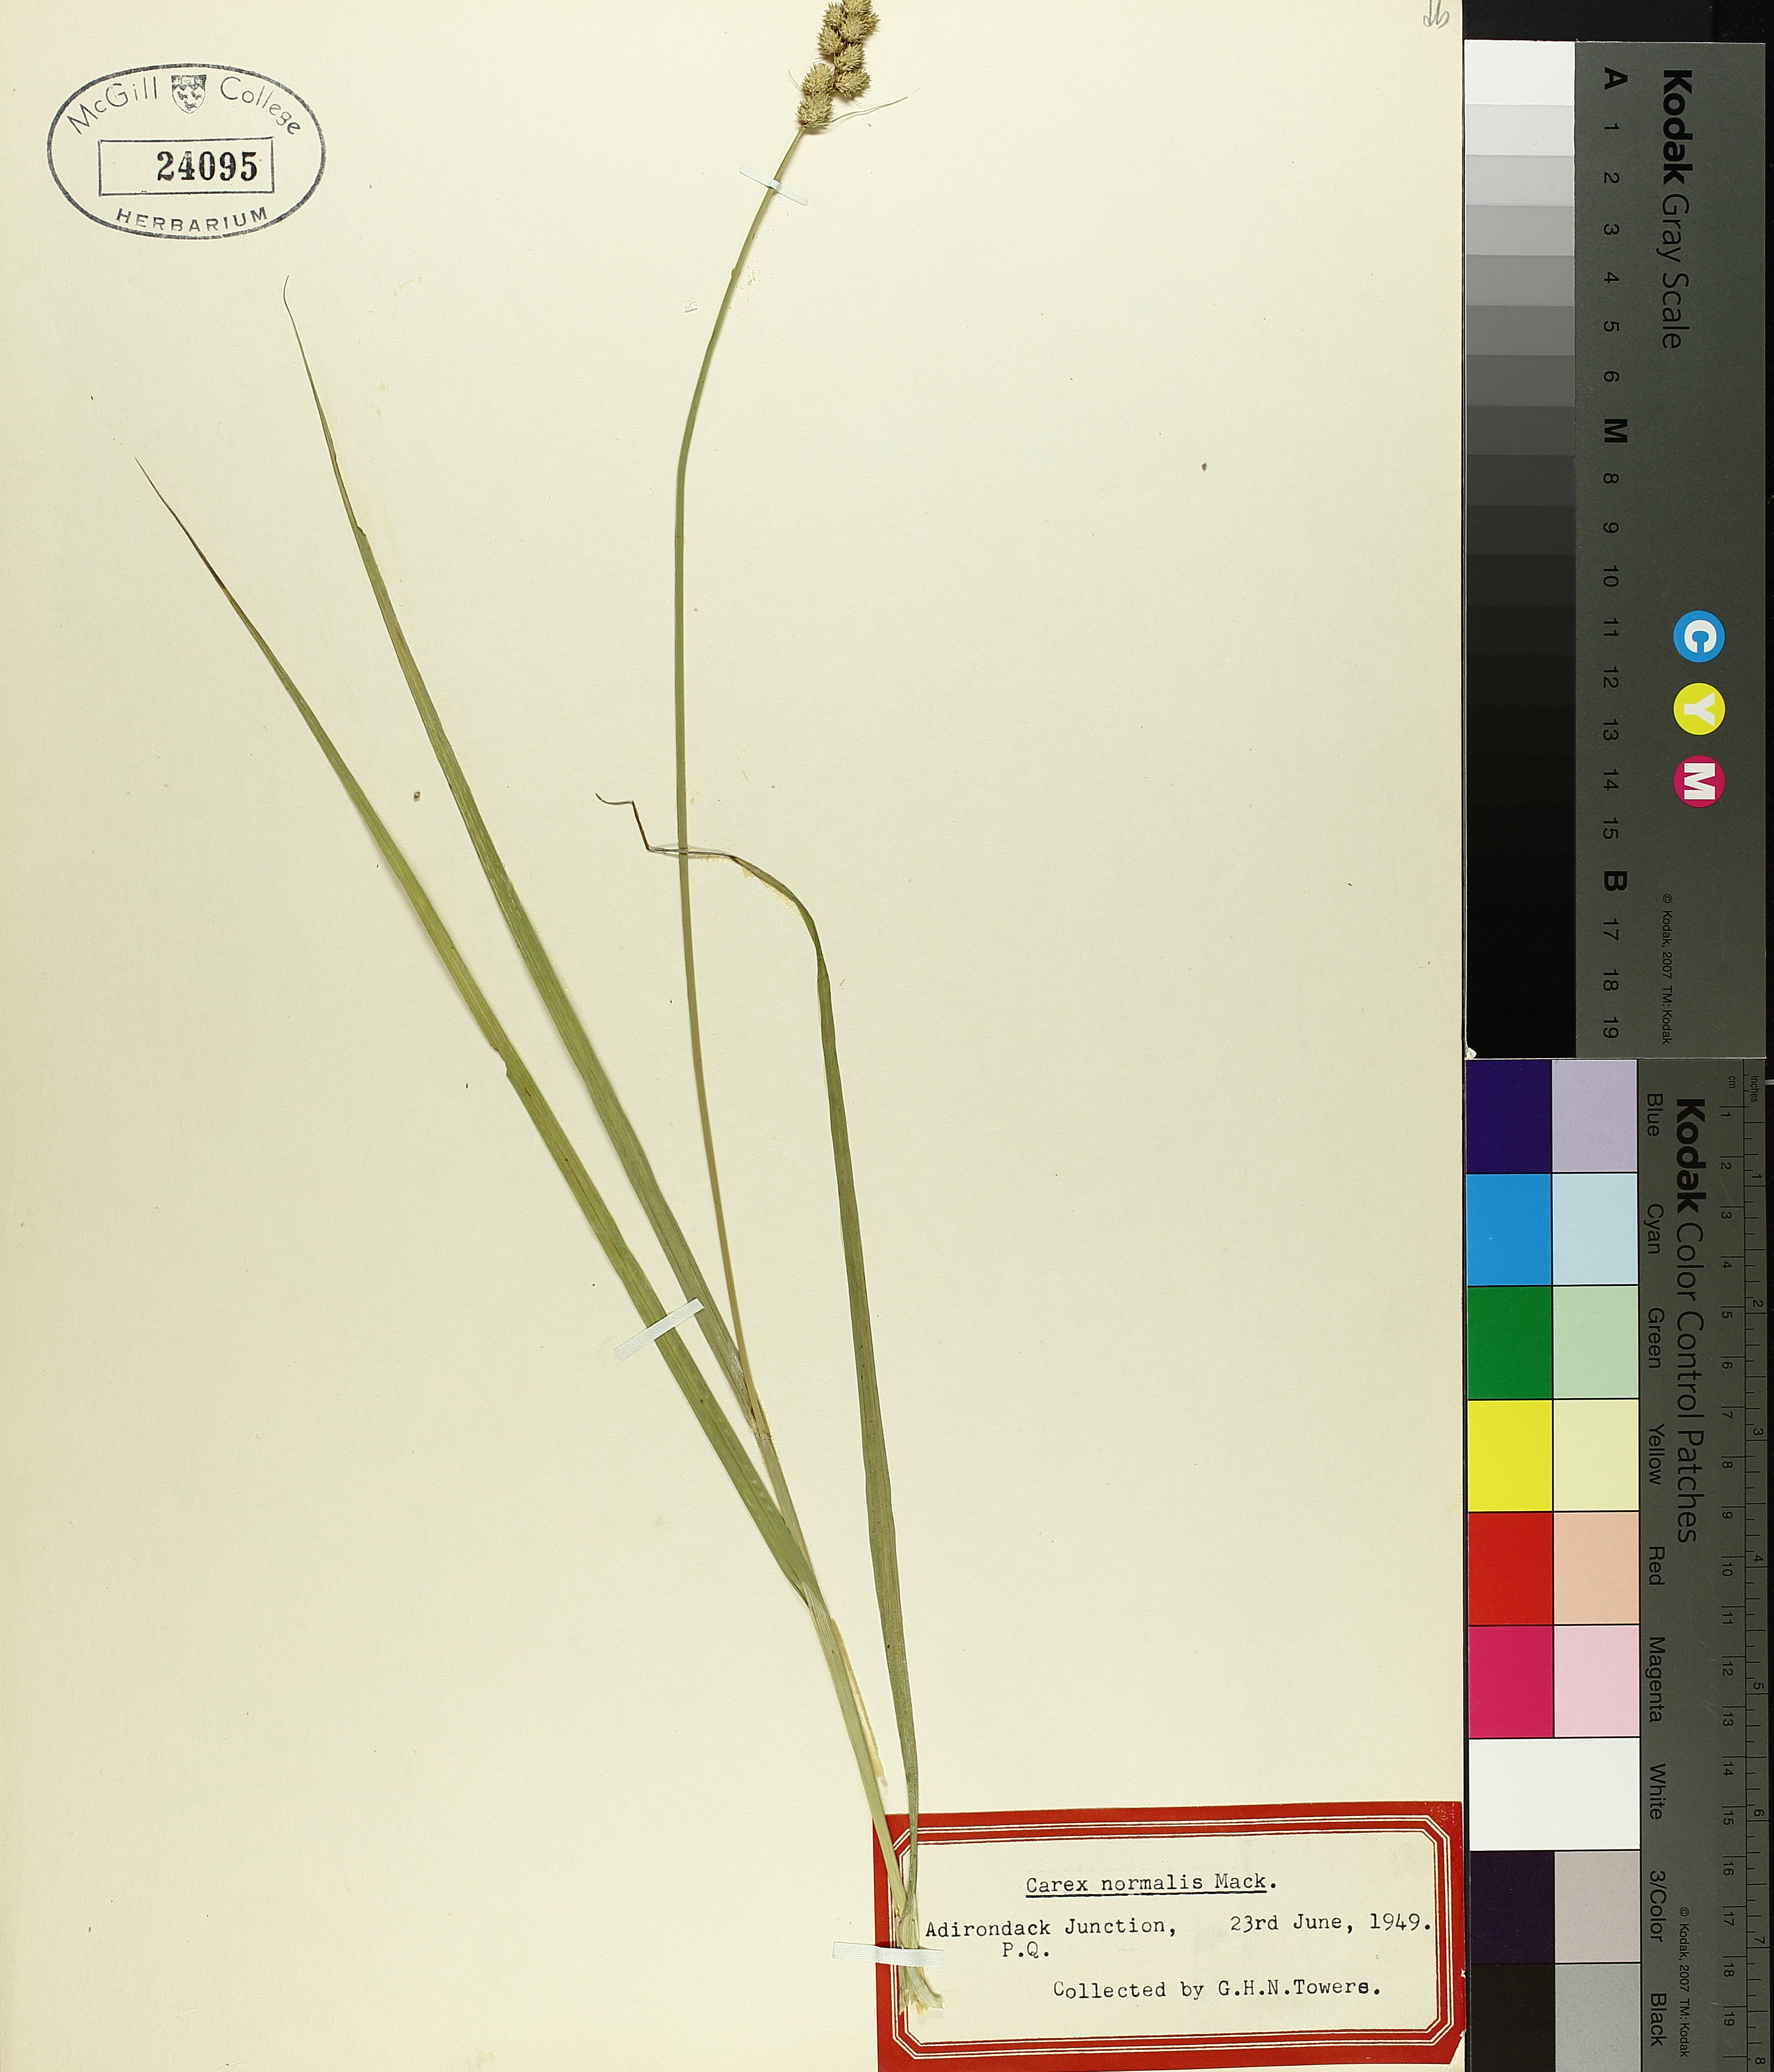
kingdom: Plantae
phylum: Tracheophyta
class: Liliopsida
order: Poales
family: Cyperaceae
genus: Carex
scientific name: Carex normalis
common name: Greater straw sedge
